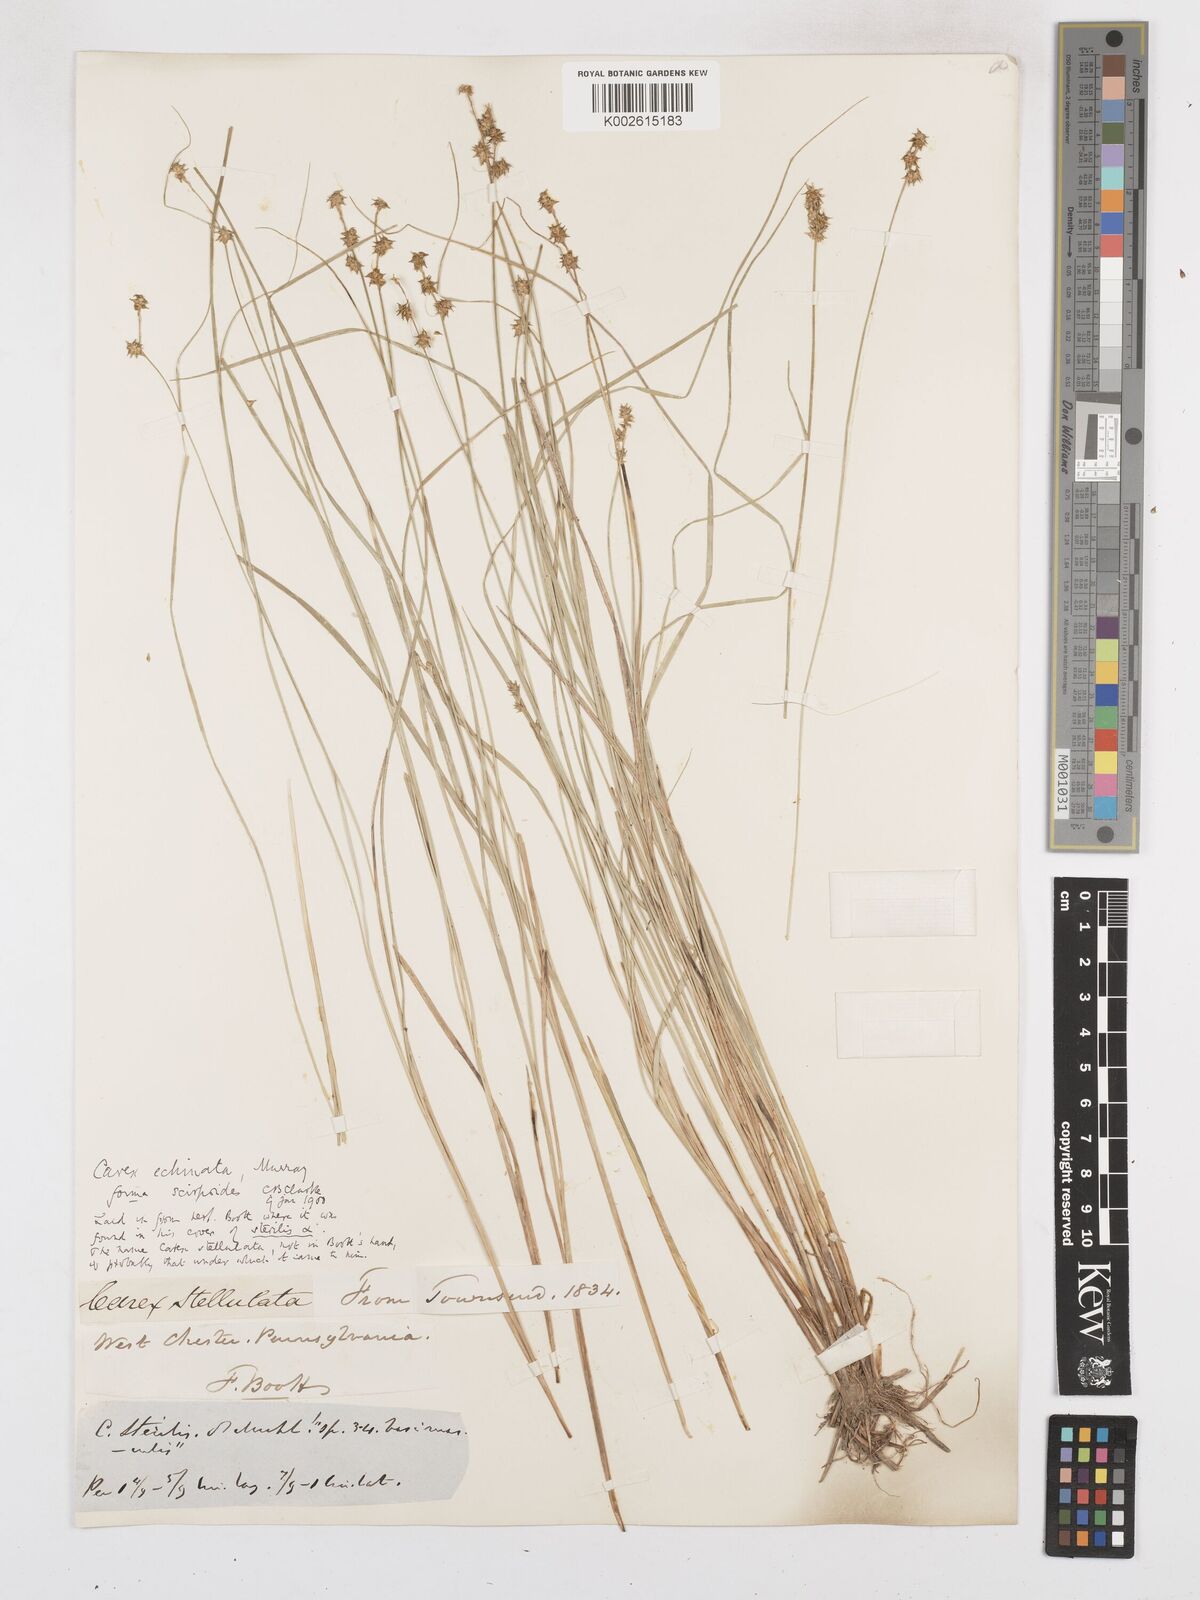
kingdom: Plantae
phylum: Tracheophyta
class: Liliopsida
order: Poales
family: Cyperaceae
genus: Carex
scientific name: Carex echinata
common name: Star sedge
